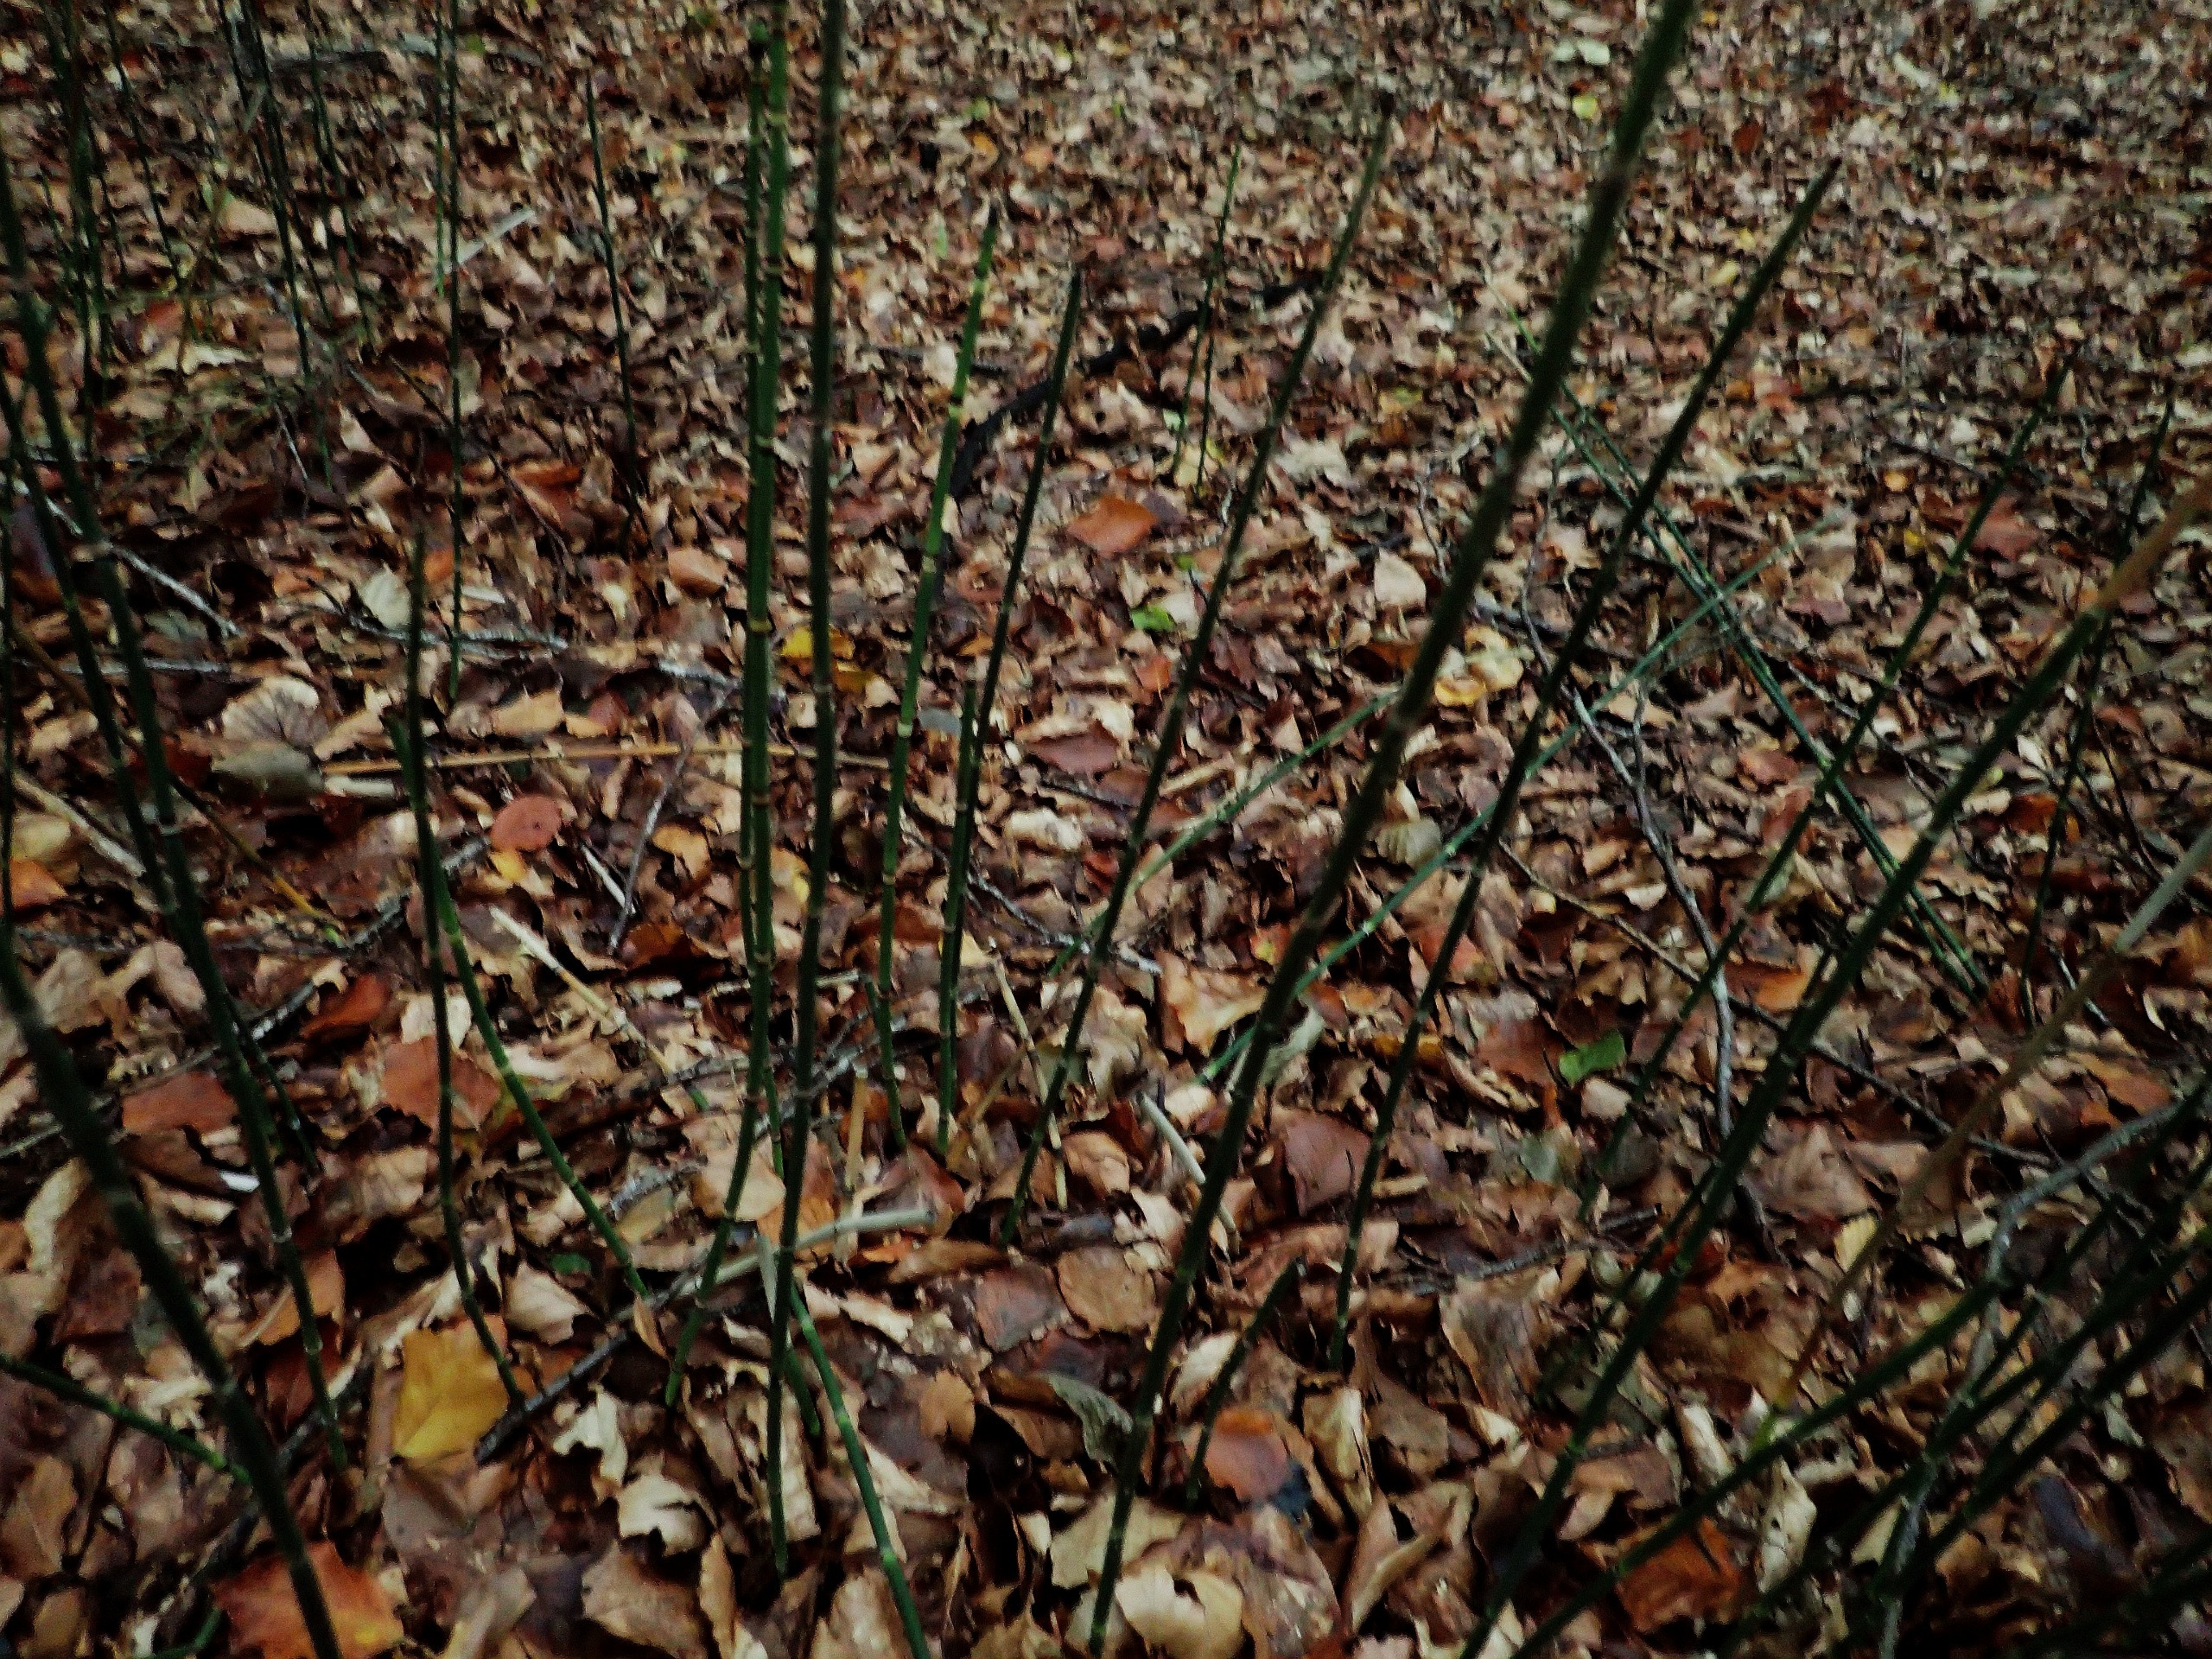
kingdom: Plantae
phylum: Tracheophyta
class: Polypodiopsida
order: Equisetales
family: Equisetaceae
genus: Equisetum
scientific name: Equisetum hyemale
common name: Skavgræs
